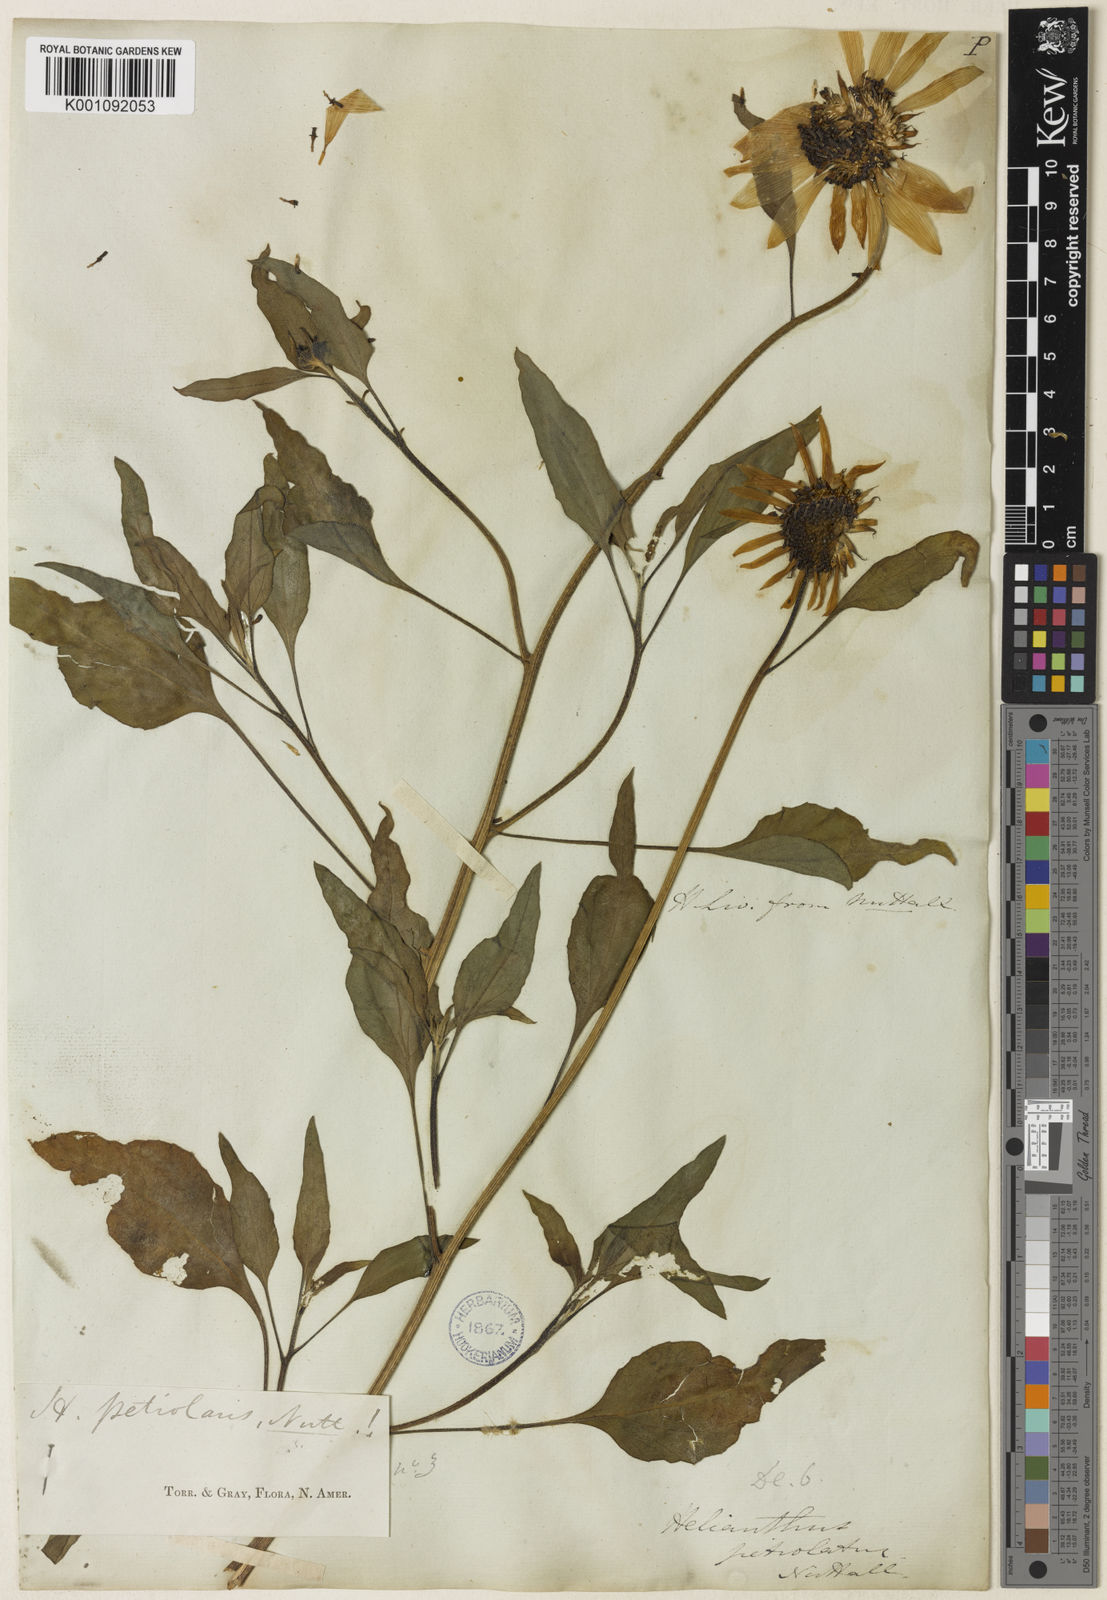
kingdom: Plantae
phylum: Tracheophyta
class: Magnoliopsida
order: Asterales
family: Asteraceae
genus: Helianthus
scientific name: Helianthus petiolaris
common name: Lesser sunflower
